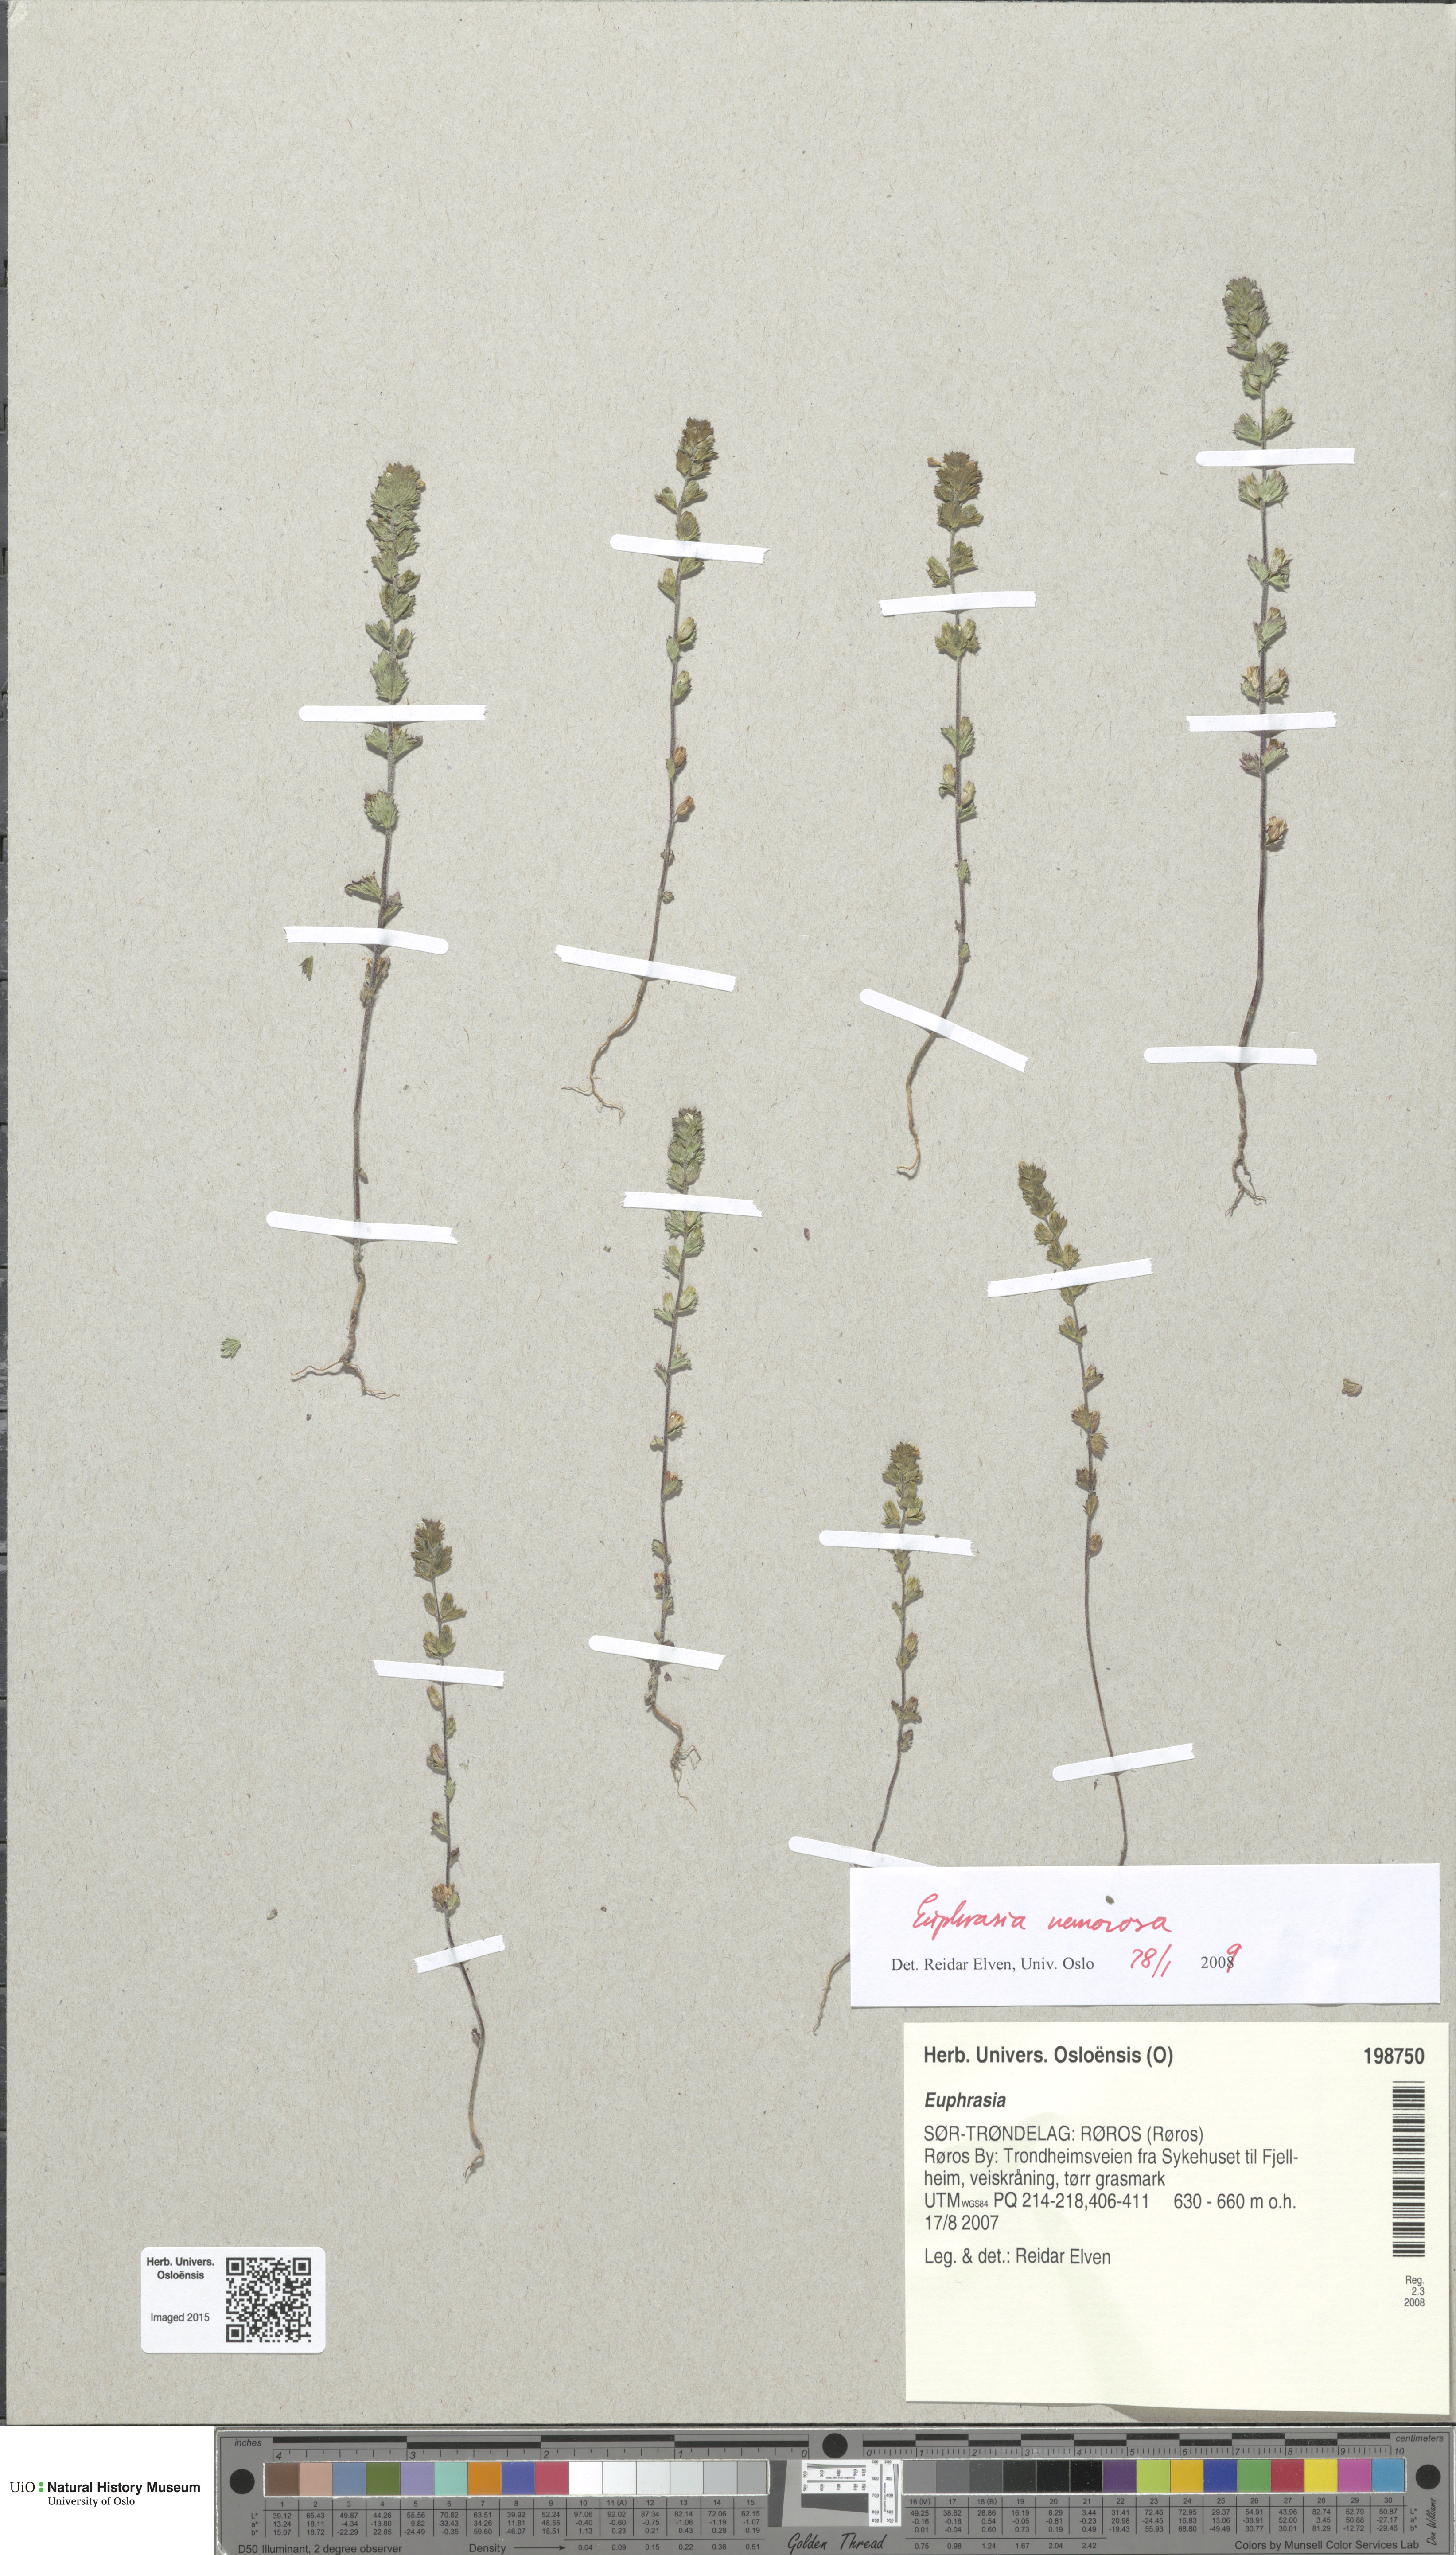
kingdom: Plantae
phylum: Tracheophyta
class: Magnoliopsida
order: Lamiales
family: Orobanchaceae
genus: Euphrasia
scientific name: Euphrasia nemorosa
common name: Common eyebright
